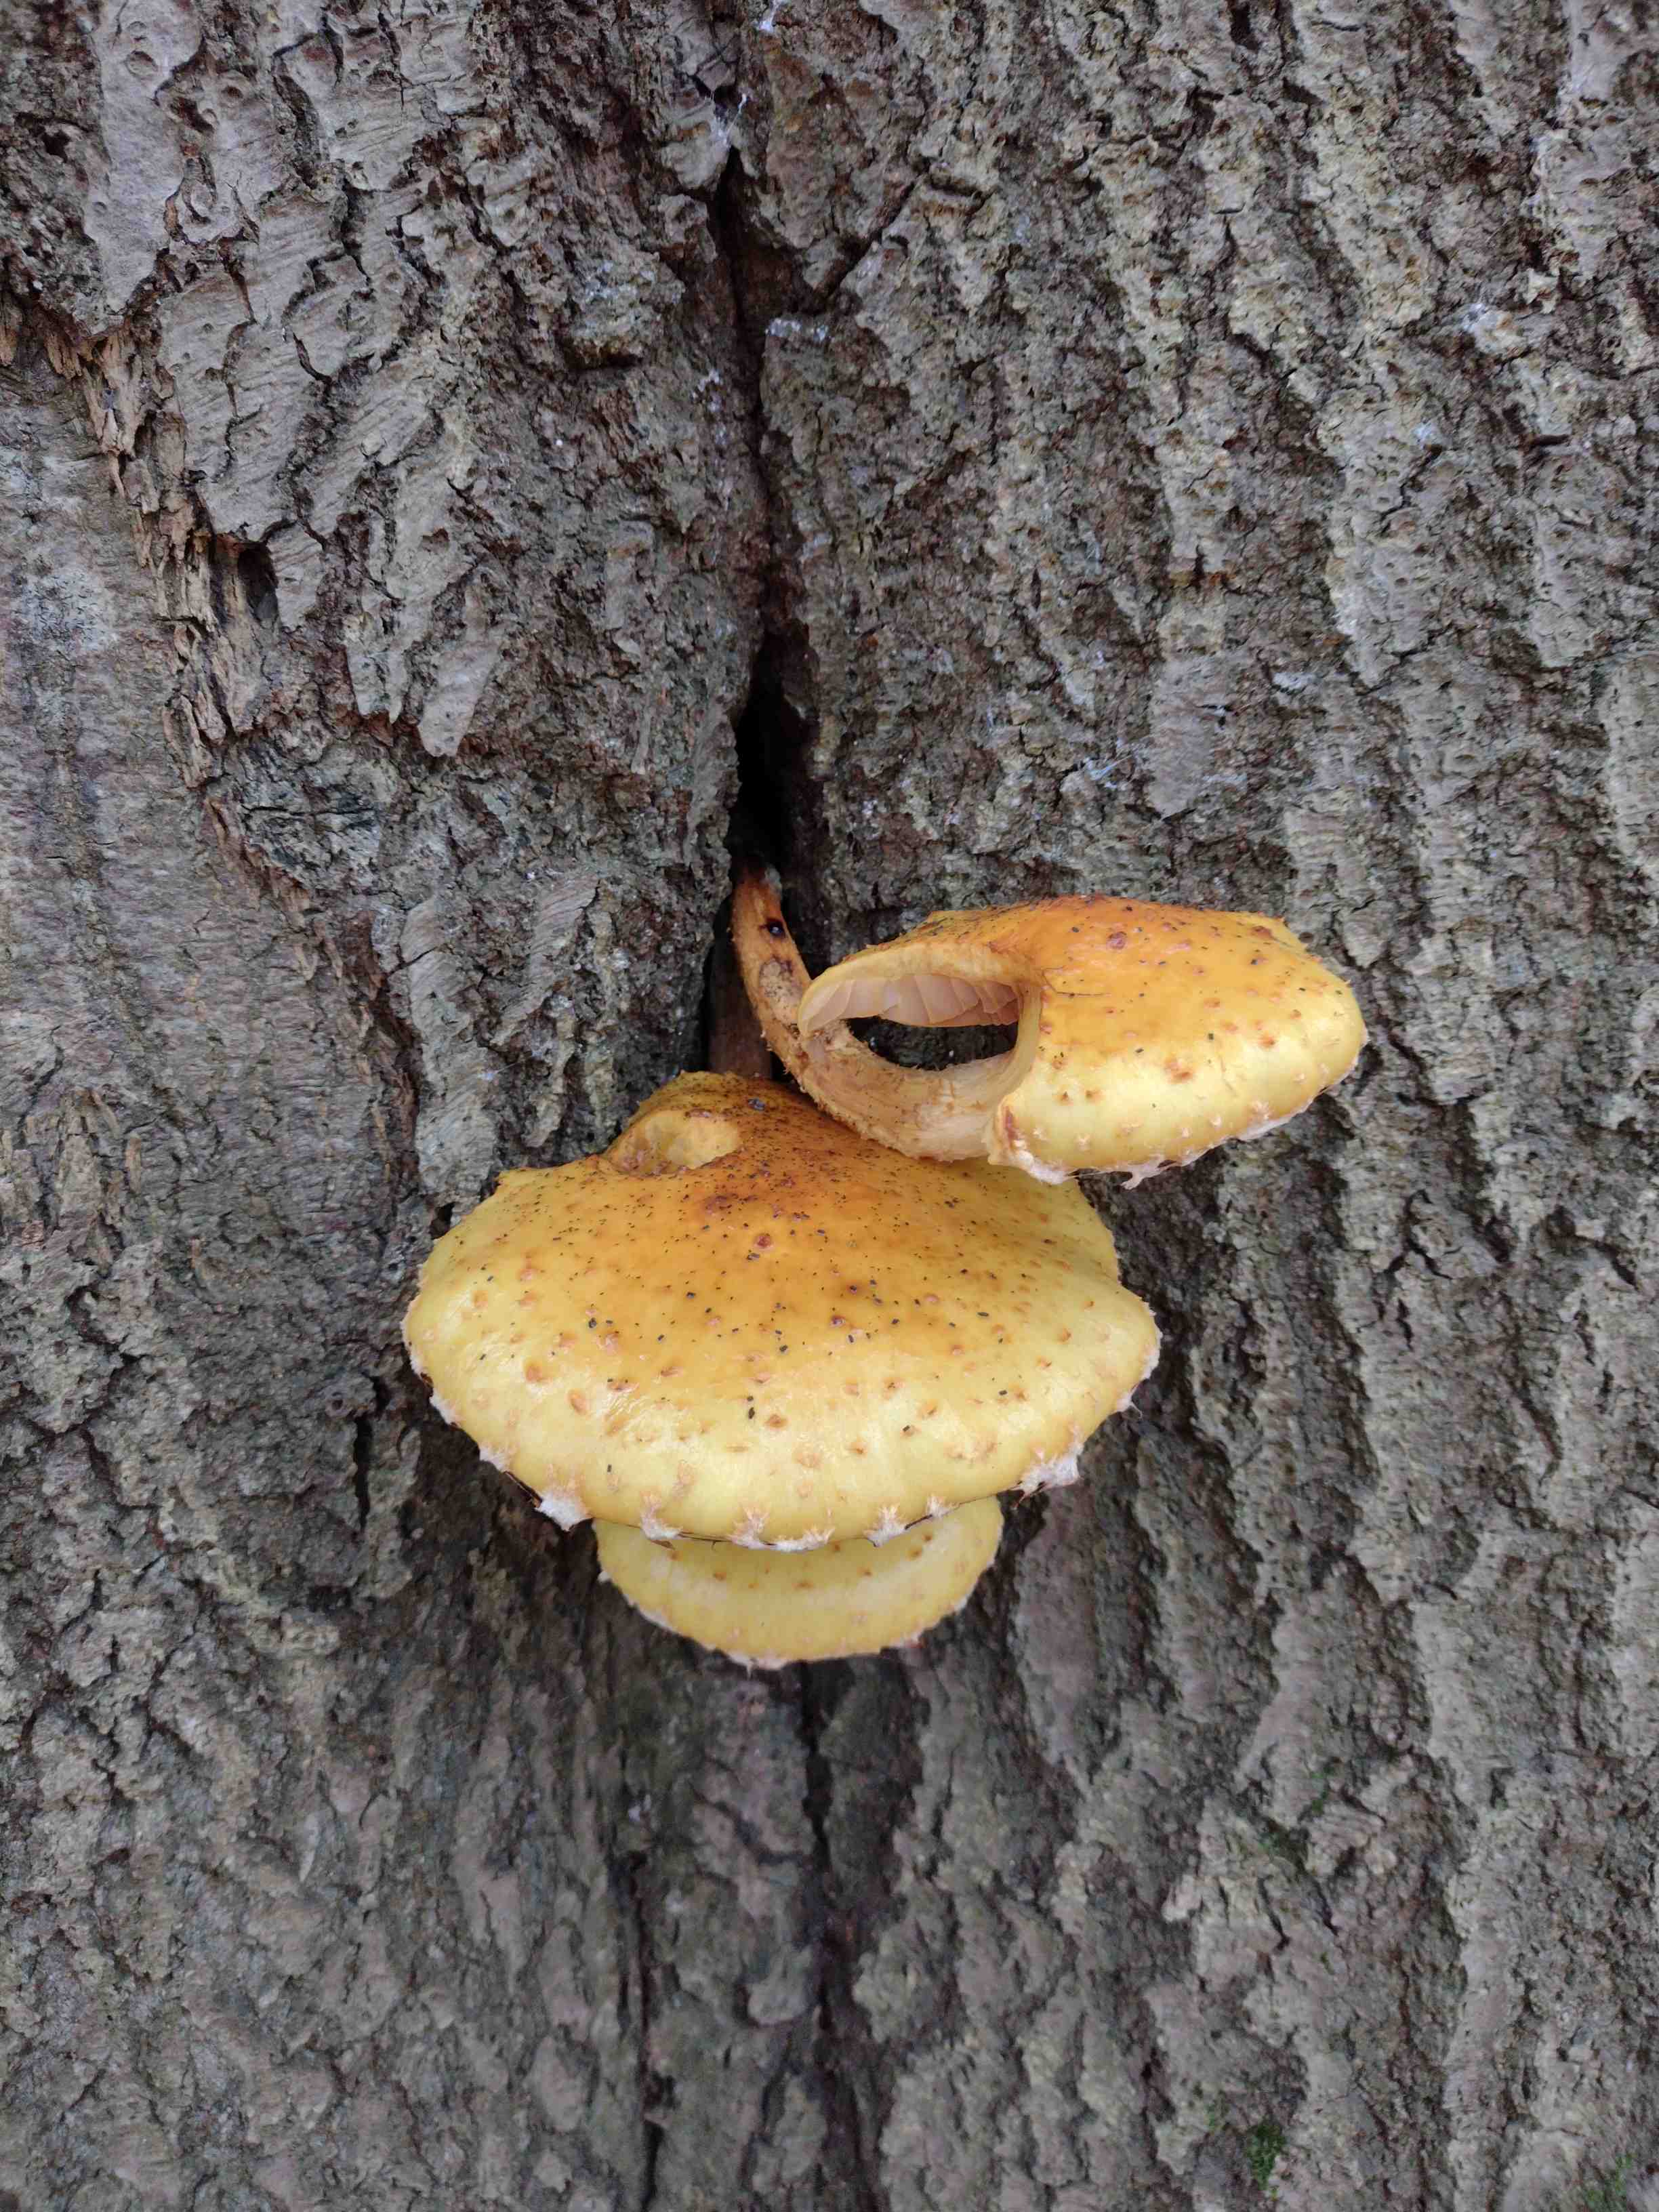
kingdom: Fungi
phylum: Basidiomycota
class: Agaricomycetes
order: Agaricales
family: Strophariaceae
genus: Pholiota
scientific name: Pholiota adiposa
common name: højtsiddende skælhat
